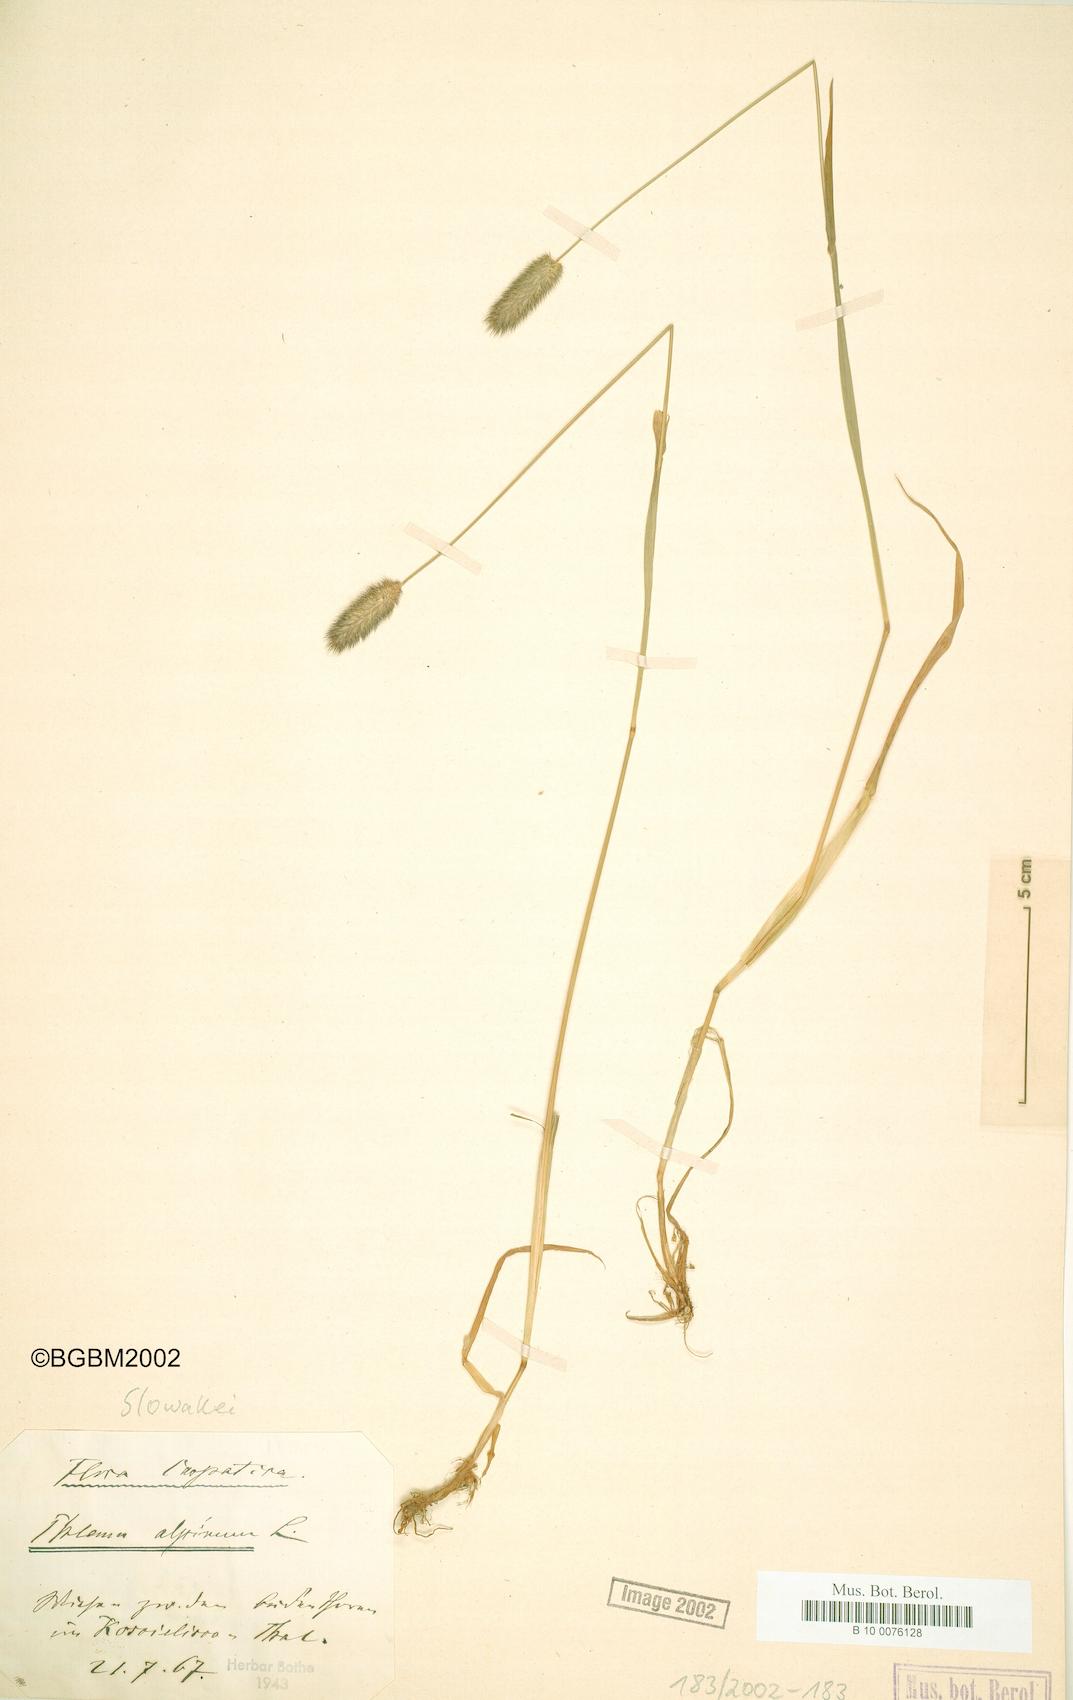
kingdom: Plantae
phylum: Tracheophyta
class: Liliopsida
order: Poales
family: Poaceae
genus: Phleum
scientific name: Phleum alpinum
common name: Alpine cat's-tail
